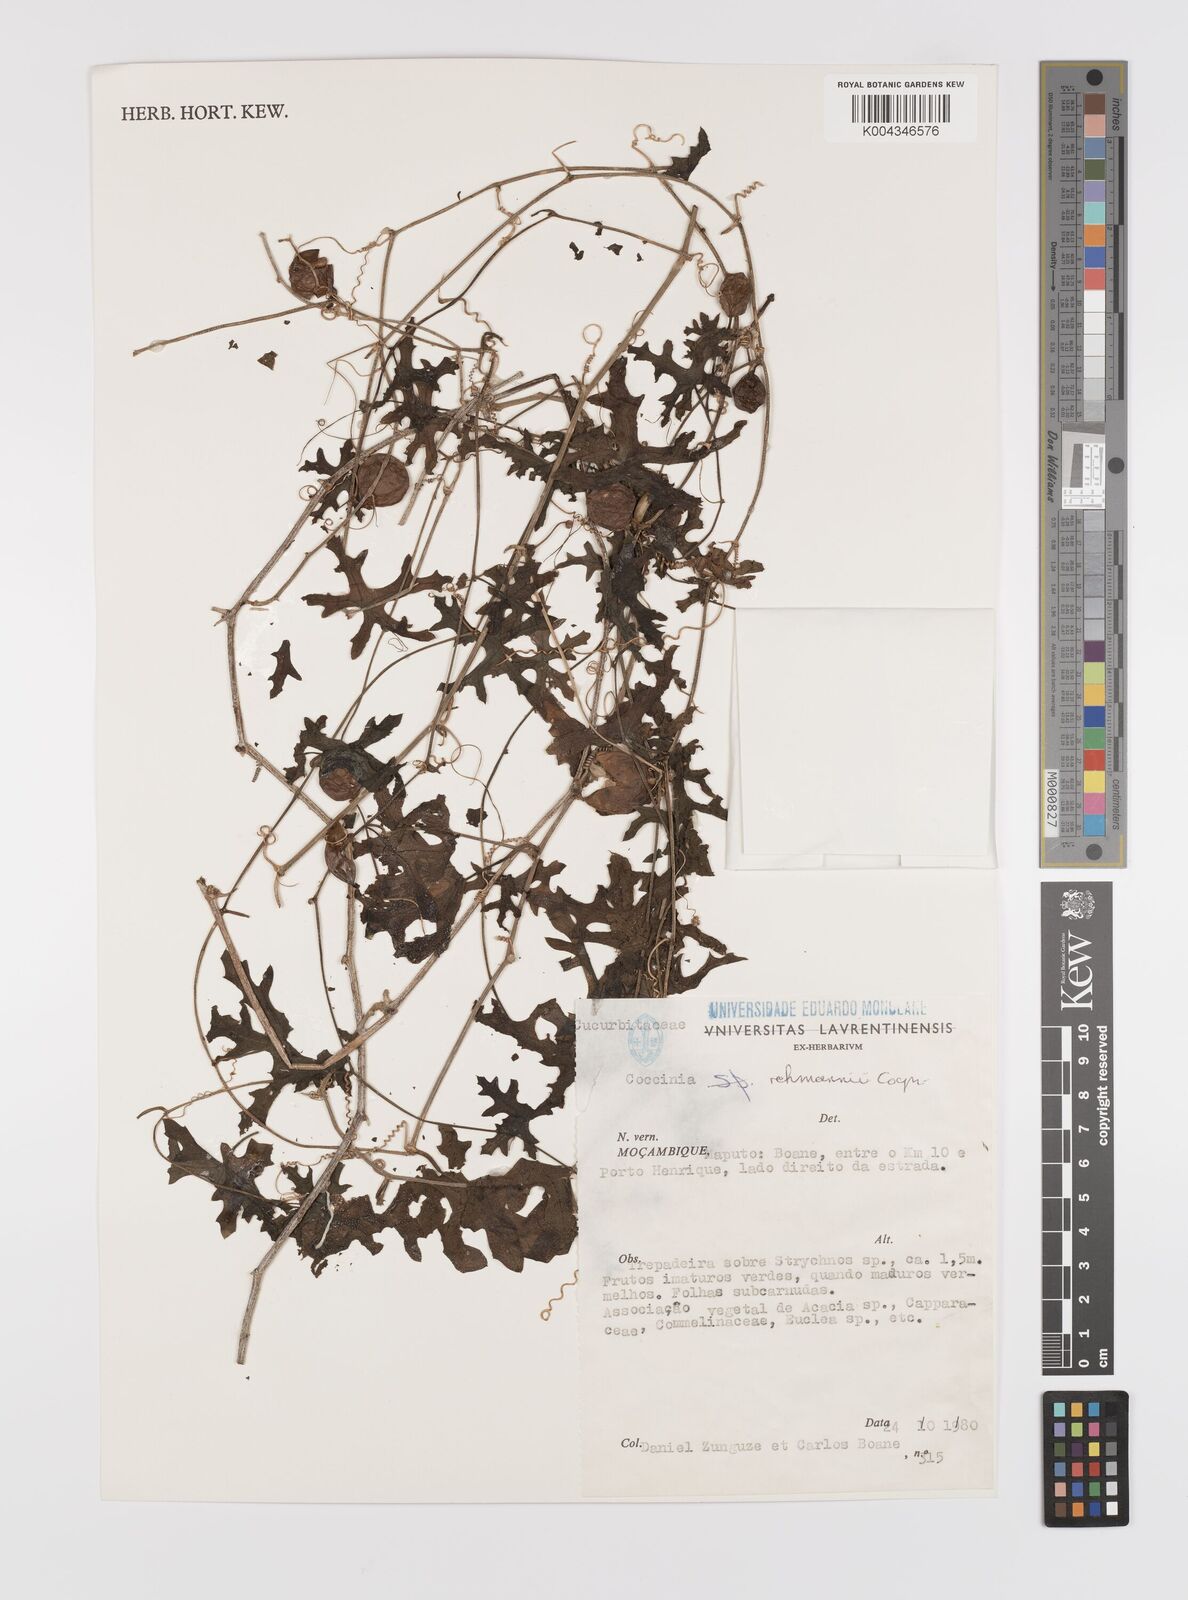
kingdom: Plantae
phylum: Tracheophyta
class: Magnoliopsida
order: Cucurbitales
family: Cucurbitaceae
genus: Coccinia
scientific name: Coccinia rehmannii
